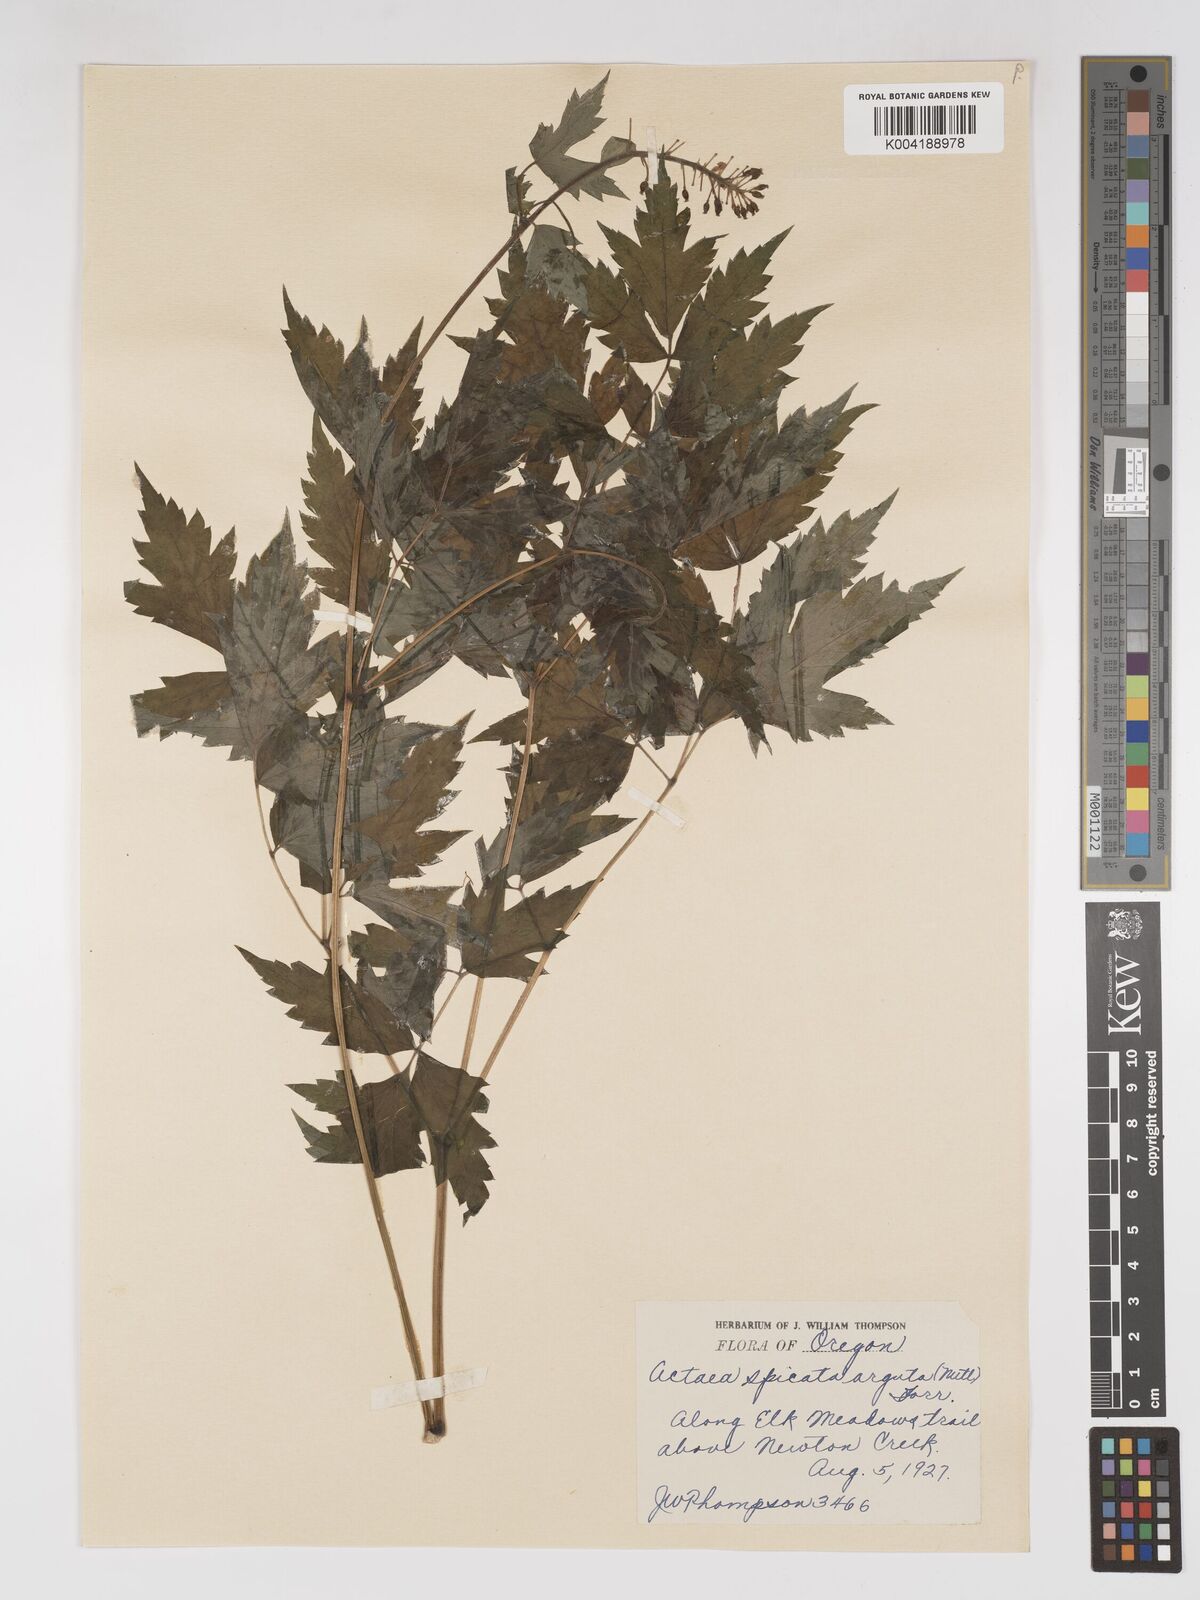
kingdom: Plantae
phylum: Tracheophyta
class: Magnoliopsida
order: Ranunculales
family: Ranunculaceae
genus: Actaea
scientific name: Actaea rubra
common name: Red baneberry
